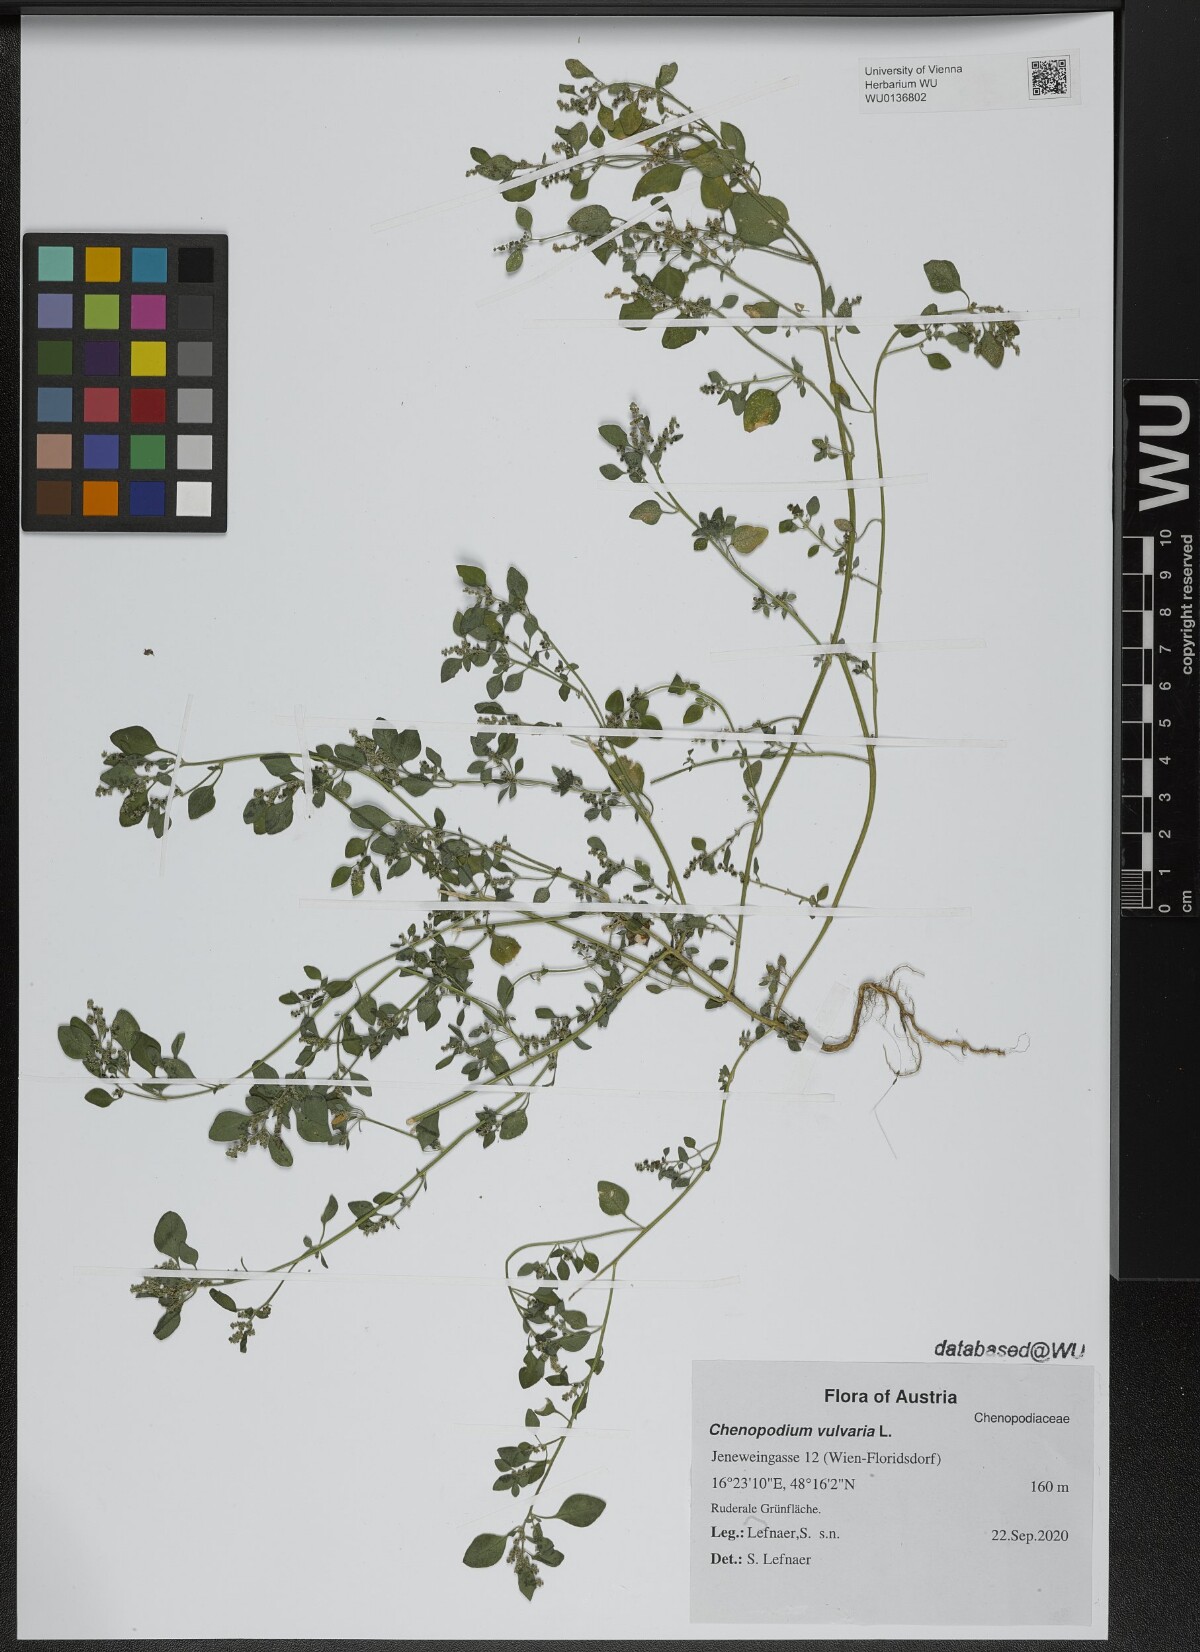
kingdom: Plantae
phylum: Tracheophyta
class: Magnoliopsida
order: Caryophyllales
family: Amaranthaceae
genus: Chenopodium
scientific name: Chenopodium vulvaria
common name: Stinking goosefoot
